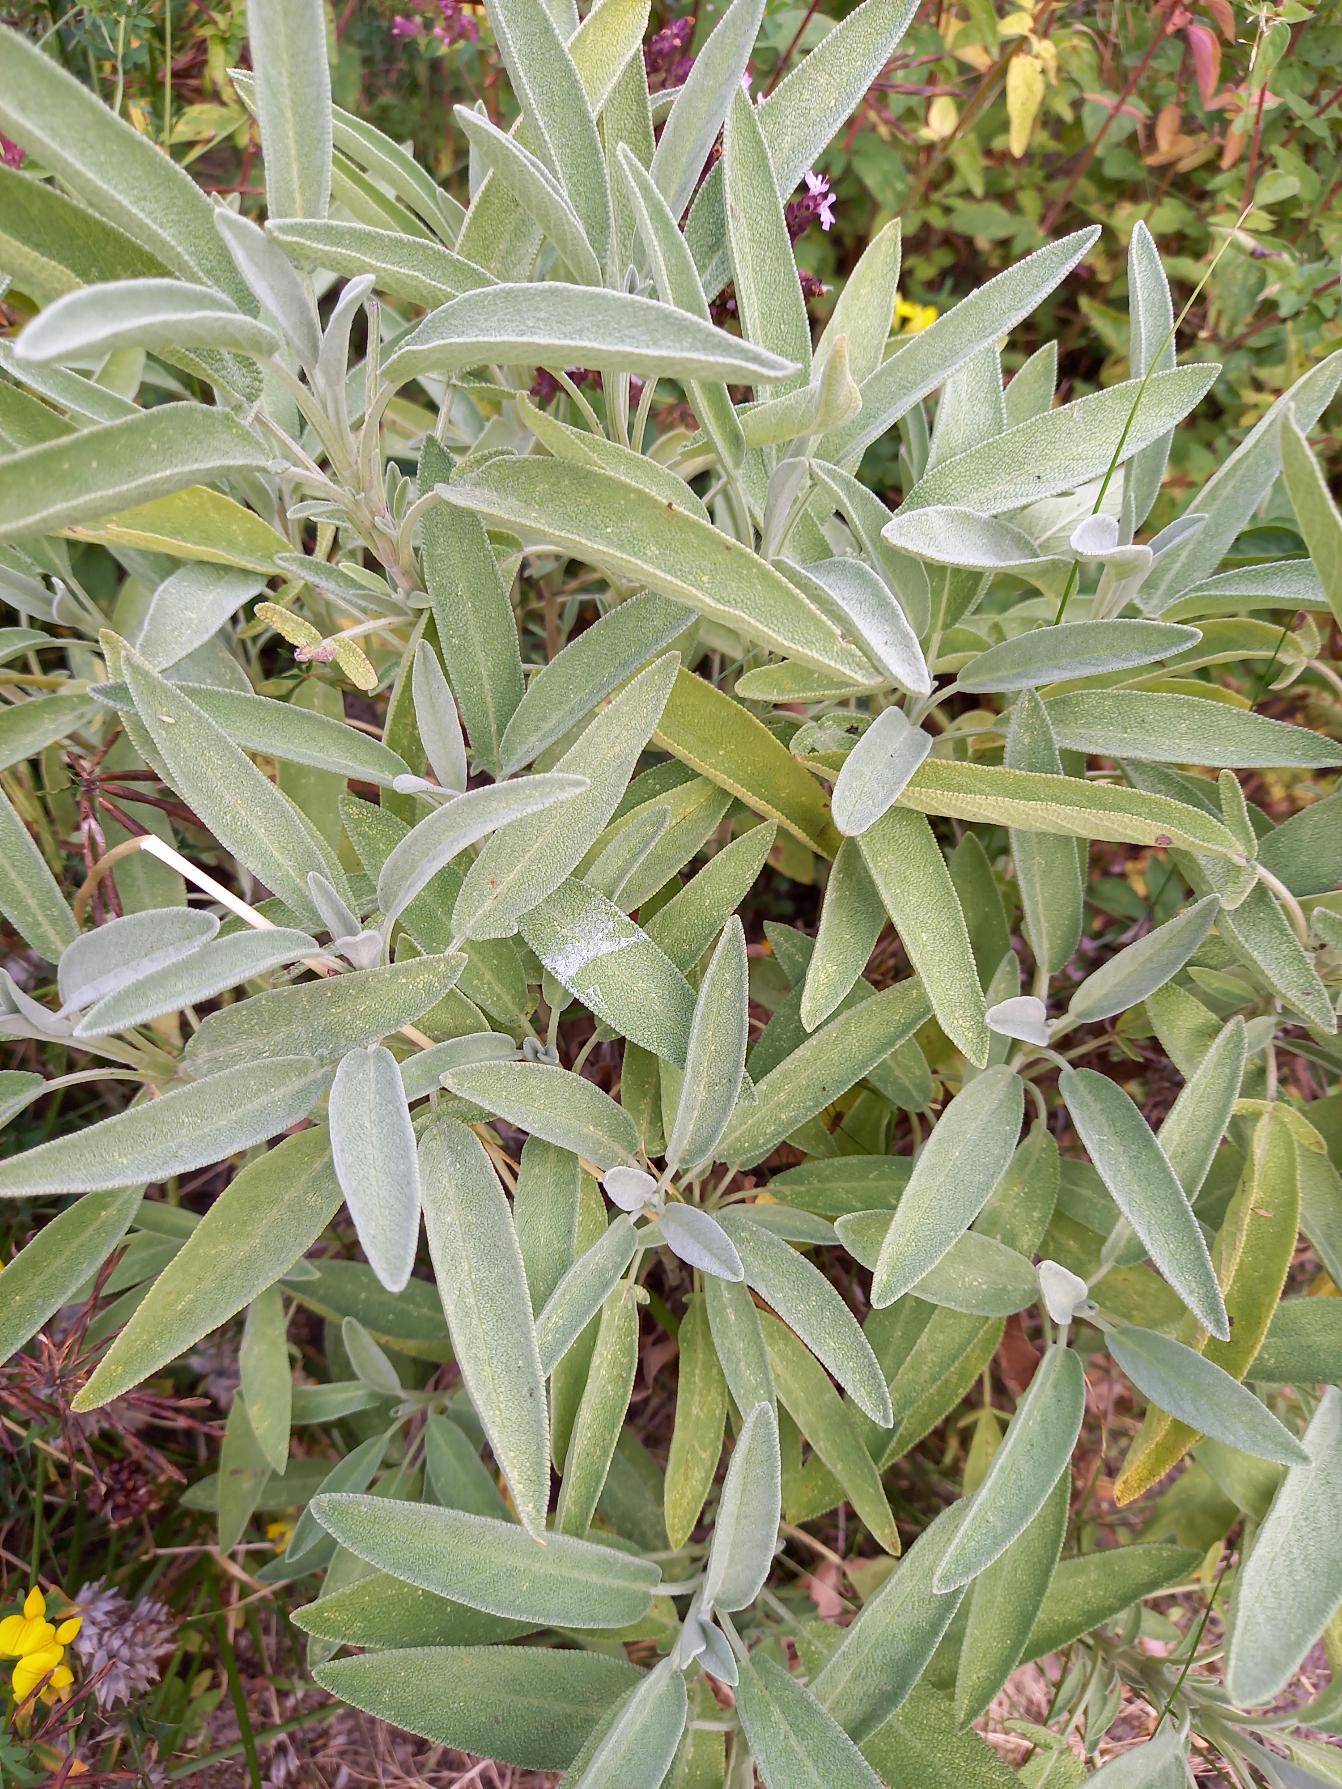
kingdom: Plantae
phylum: Tracheophyta
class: Magnoliopsida
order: Lamiales
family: Lamiaceae
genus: Salvia
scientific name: Salvia officinalis
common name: Læge-salvie
